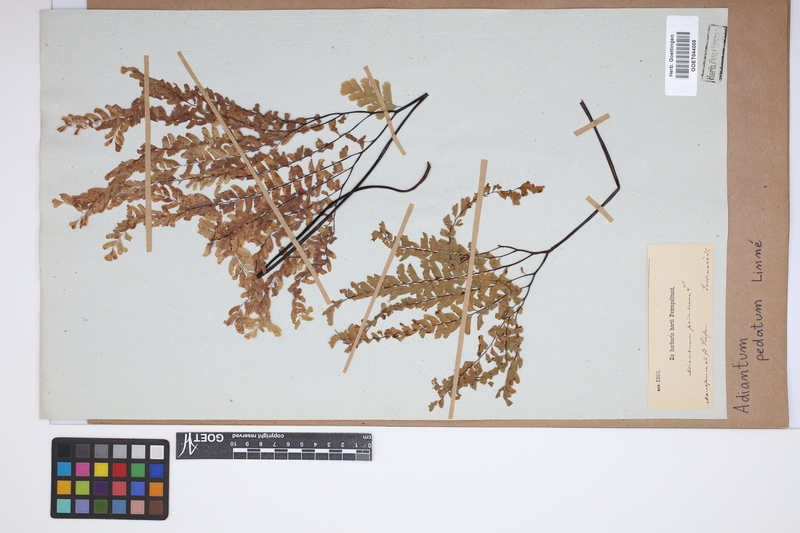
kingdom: Plantae
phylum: Tracheophyta
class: Polypodiopsida
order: Polypodiales
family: Pteridaceae
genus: Adiantum
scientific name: Adiantum pedatum
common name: Five-finger fern
